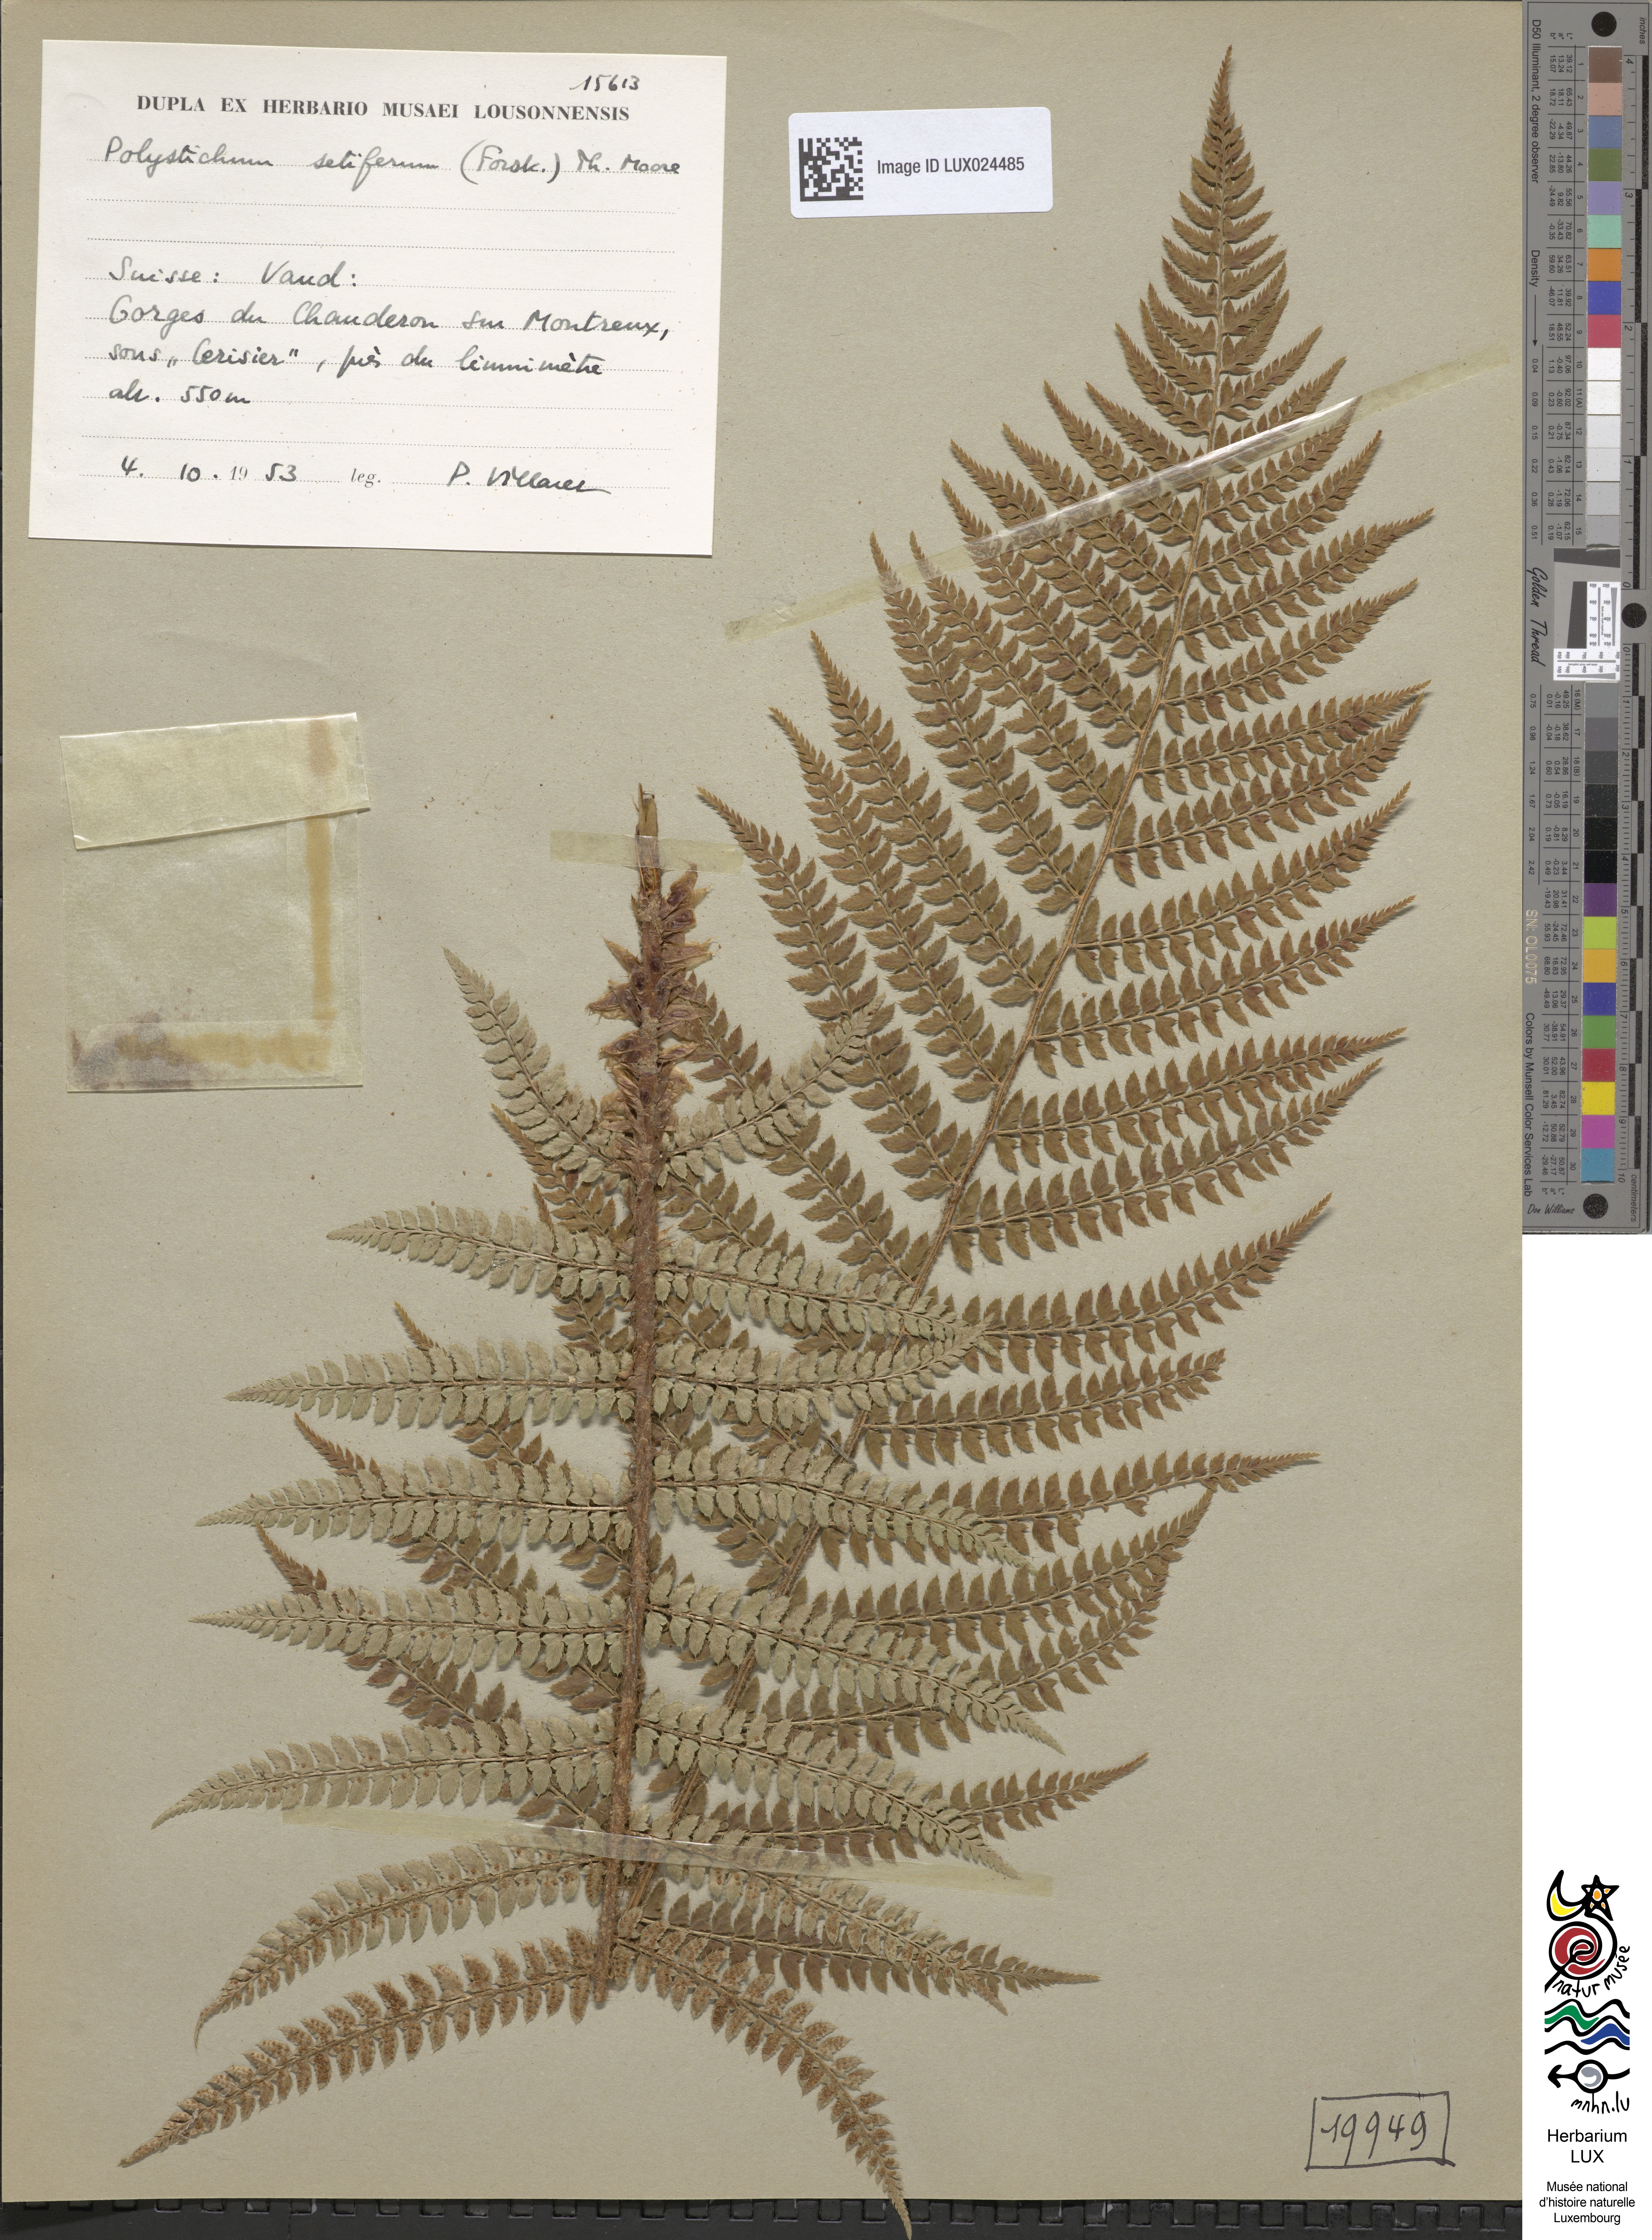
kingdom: Plantae
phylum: Tracheophyta
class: Polypodiopsida
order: Polypodiales
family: Dryopteridaceae
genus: Polystichum
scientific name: Polystichum setiferum
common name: Soft shield-fern
